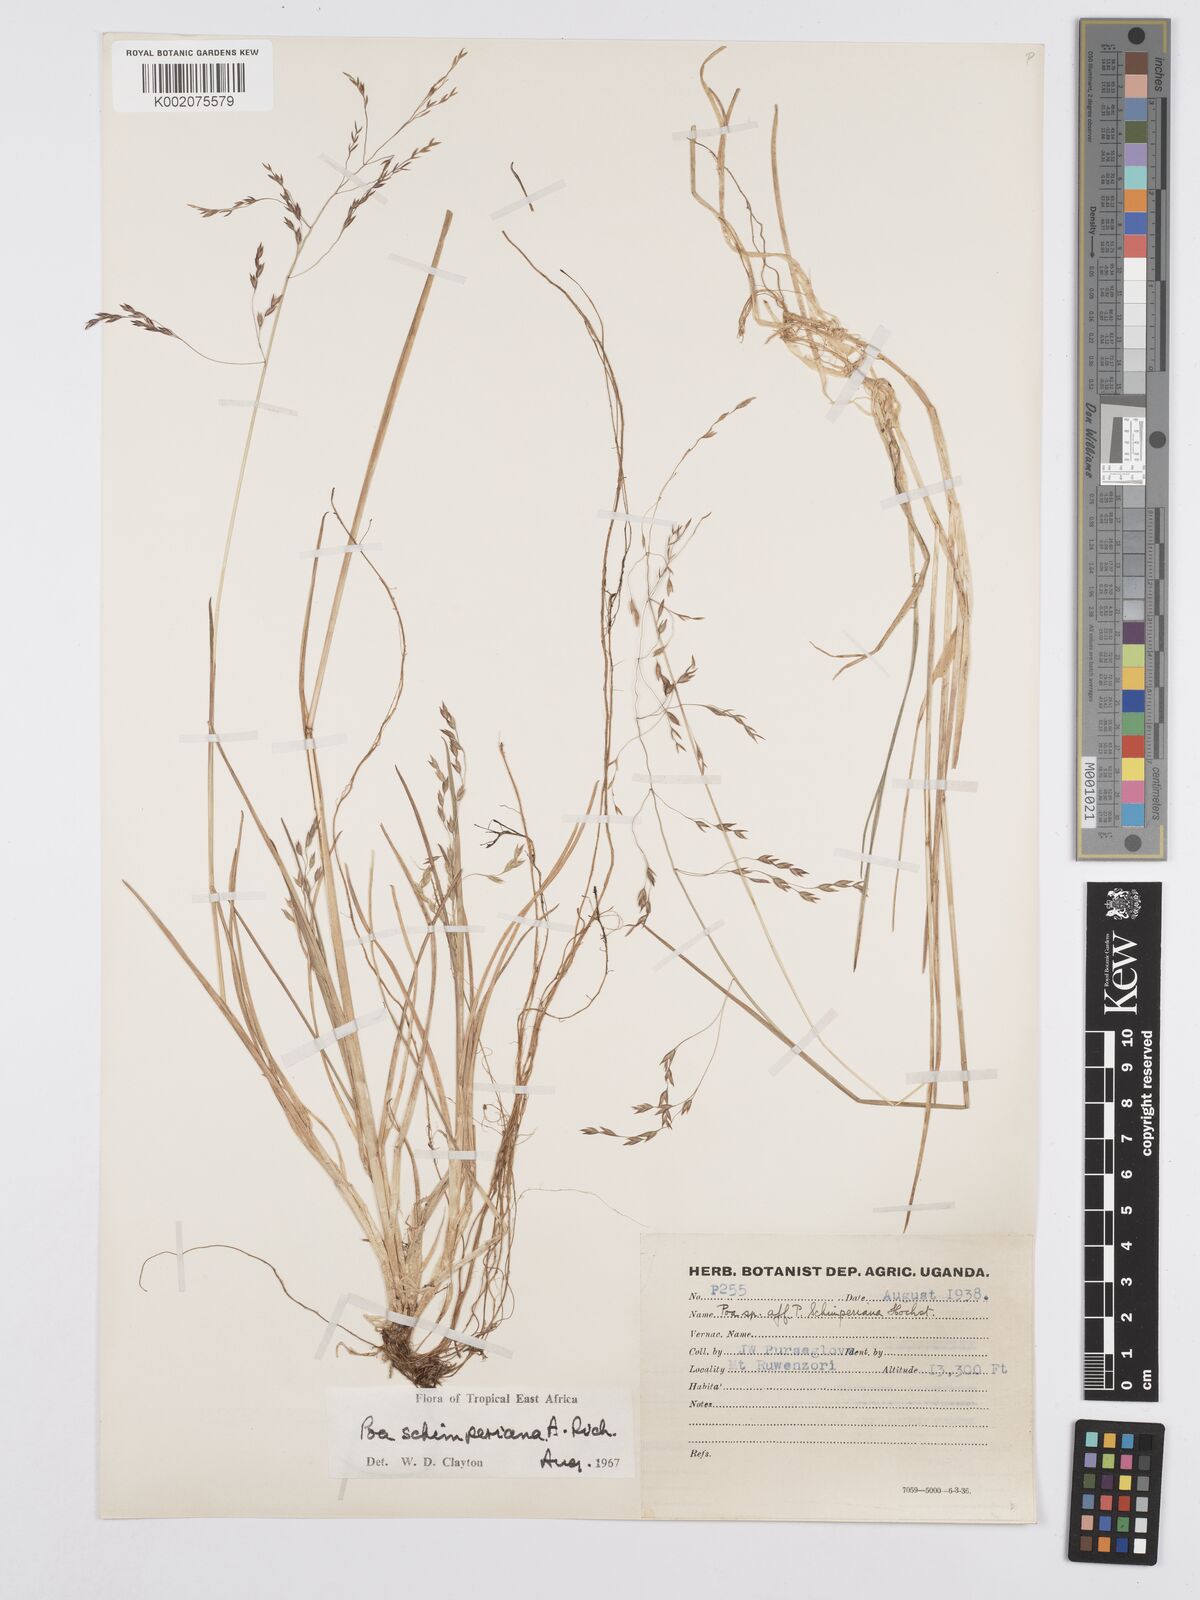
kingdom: Plantae
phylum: Tracheophyta
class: Liliopsida
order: Poales
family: Poaceae
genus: Poa
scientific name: Poa schimperiana
